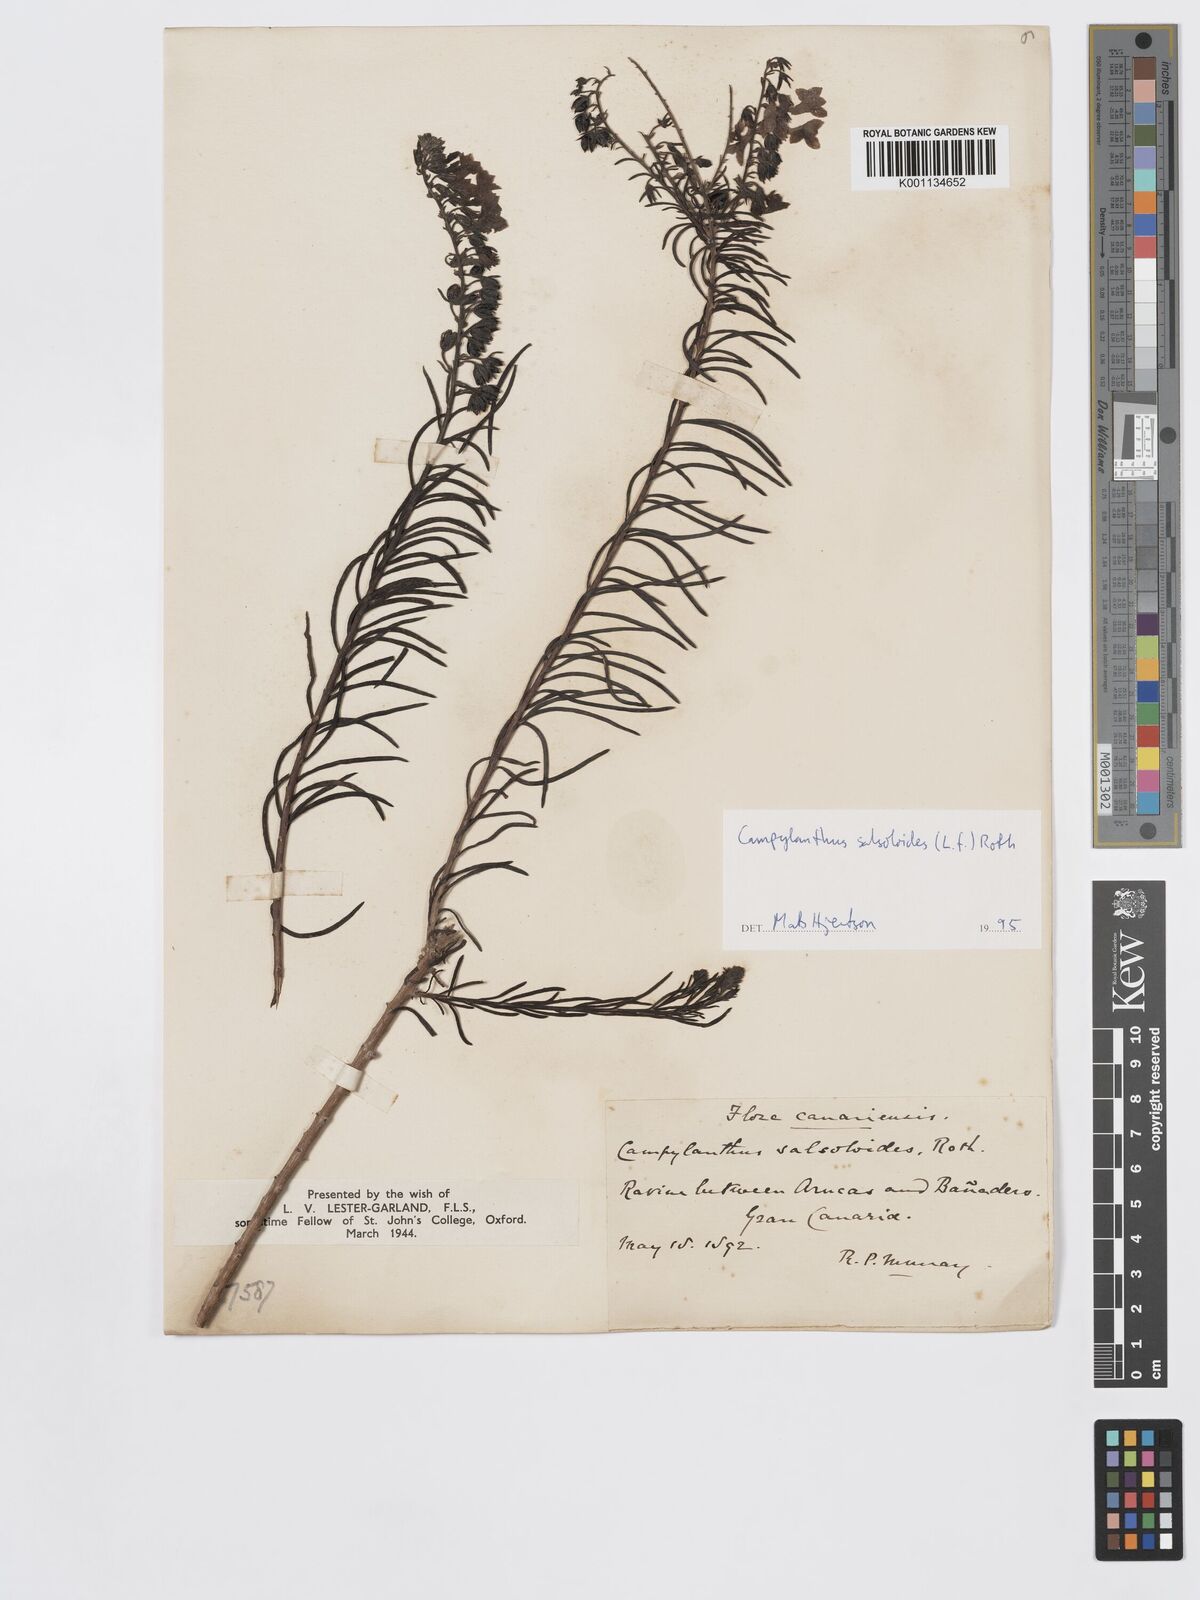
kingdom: Plantae
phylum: Tracheophyta
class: Magnoliopsida
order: Lamiales
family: Plantaginaceae
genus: Campylanthus
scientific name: Campylanthus
